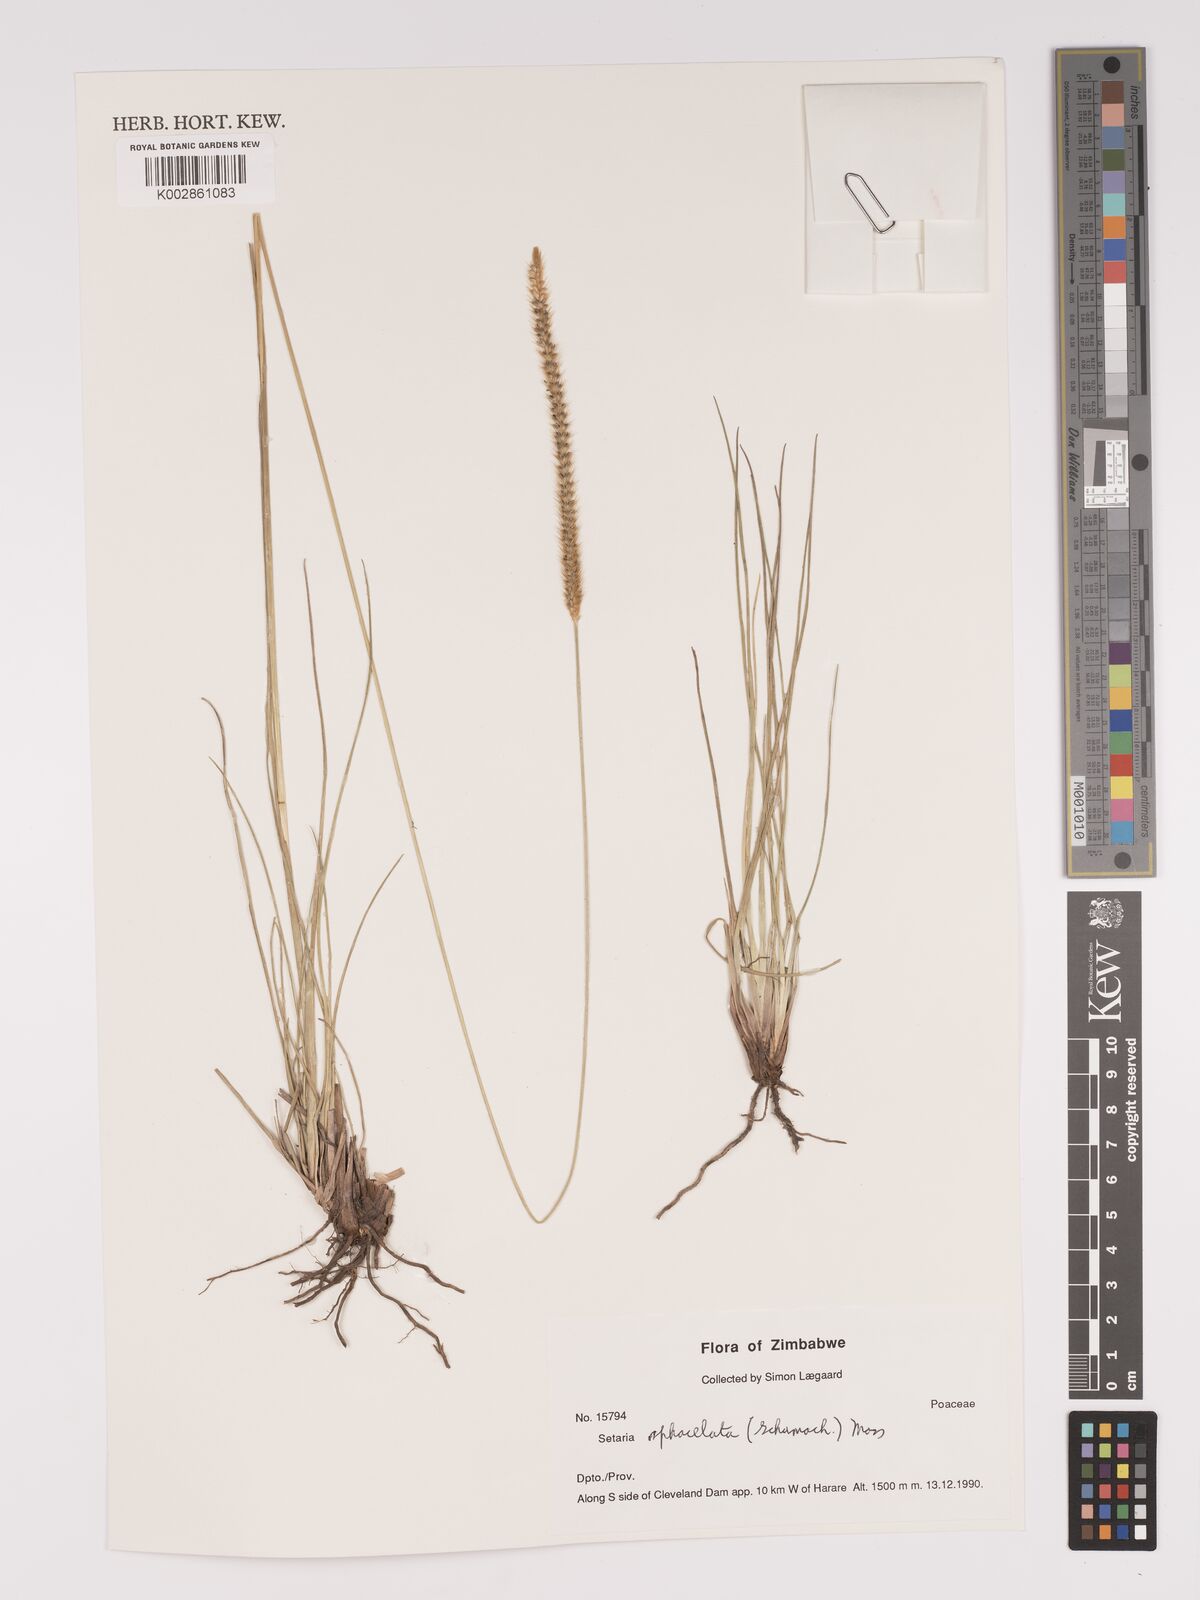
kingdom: Plantae
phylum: Tracheophyta
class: Liliopsida
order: Poales
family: Poaceae
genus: Setaria
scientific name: Setaria sphacelata
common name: African bristlegrass
